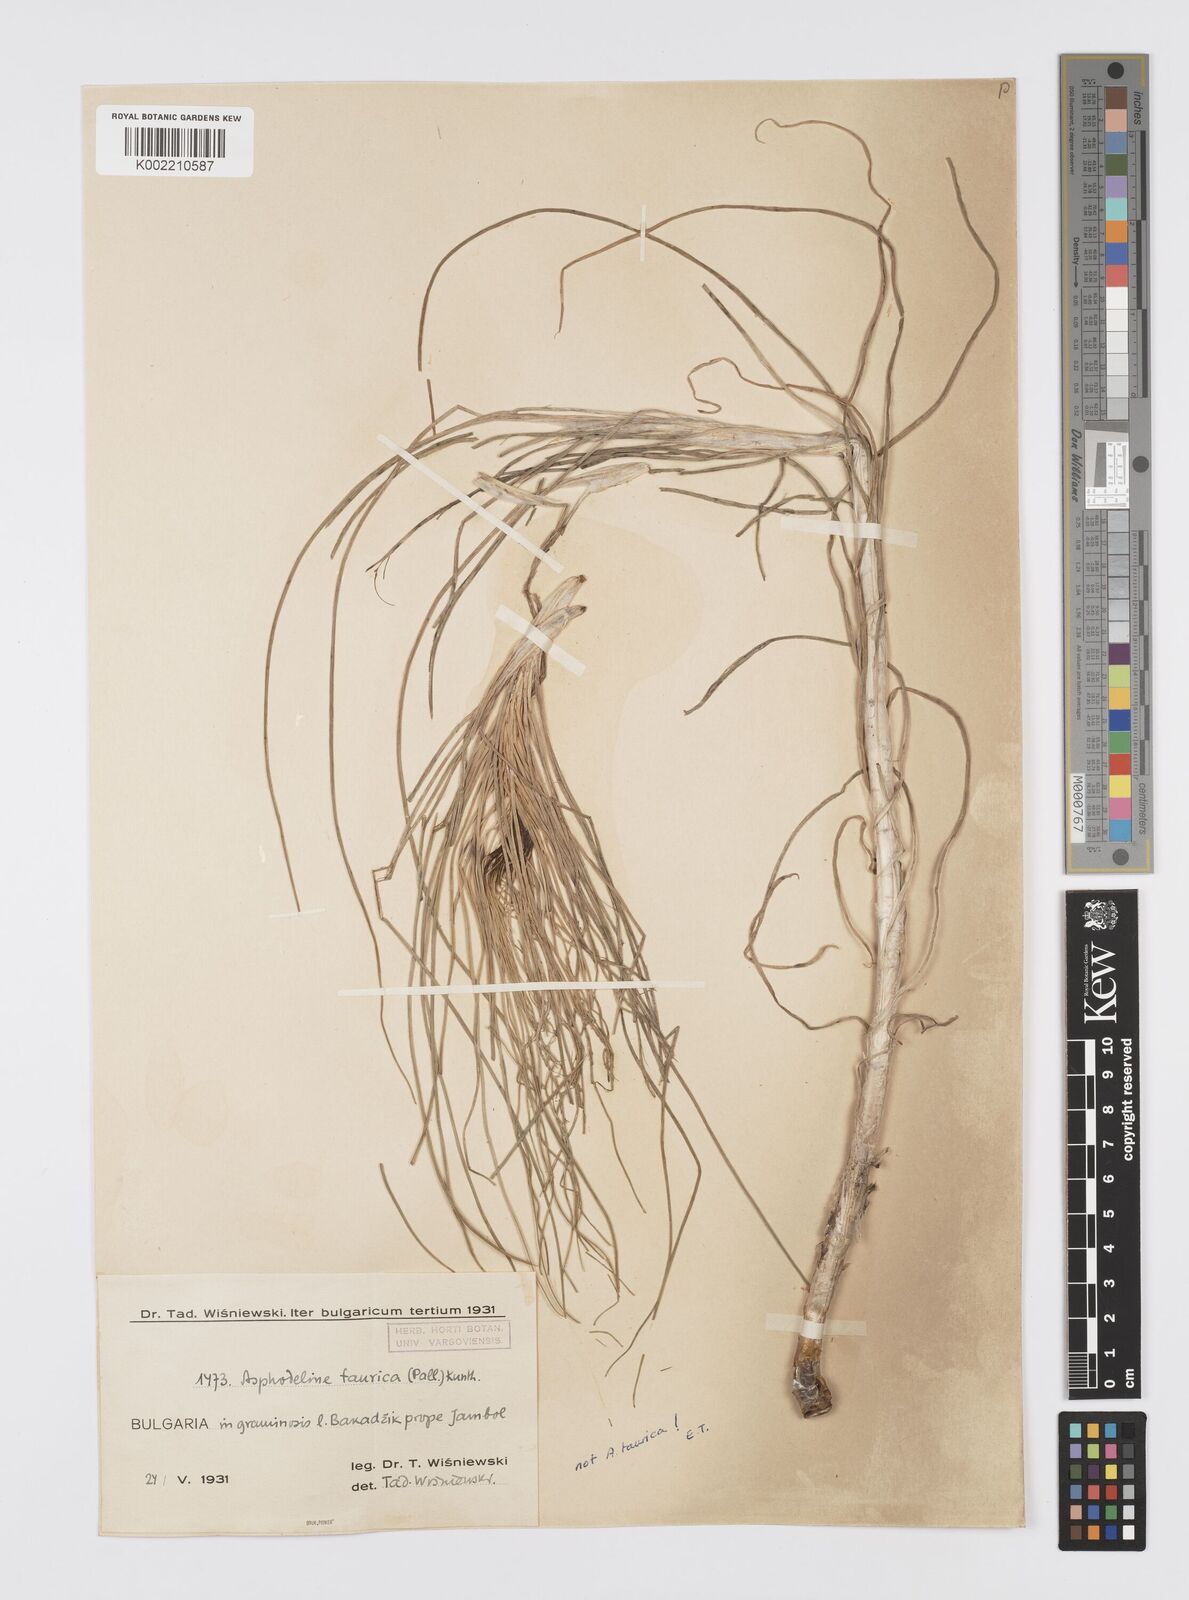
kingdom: Plantae
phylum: Tracheophyta
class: Liliopsida
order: Asparagales
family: Asphodelaceae
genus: Asphodeline
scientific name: Asphodeline taurica
